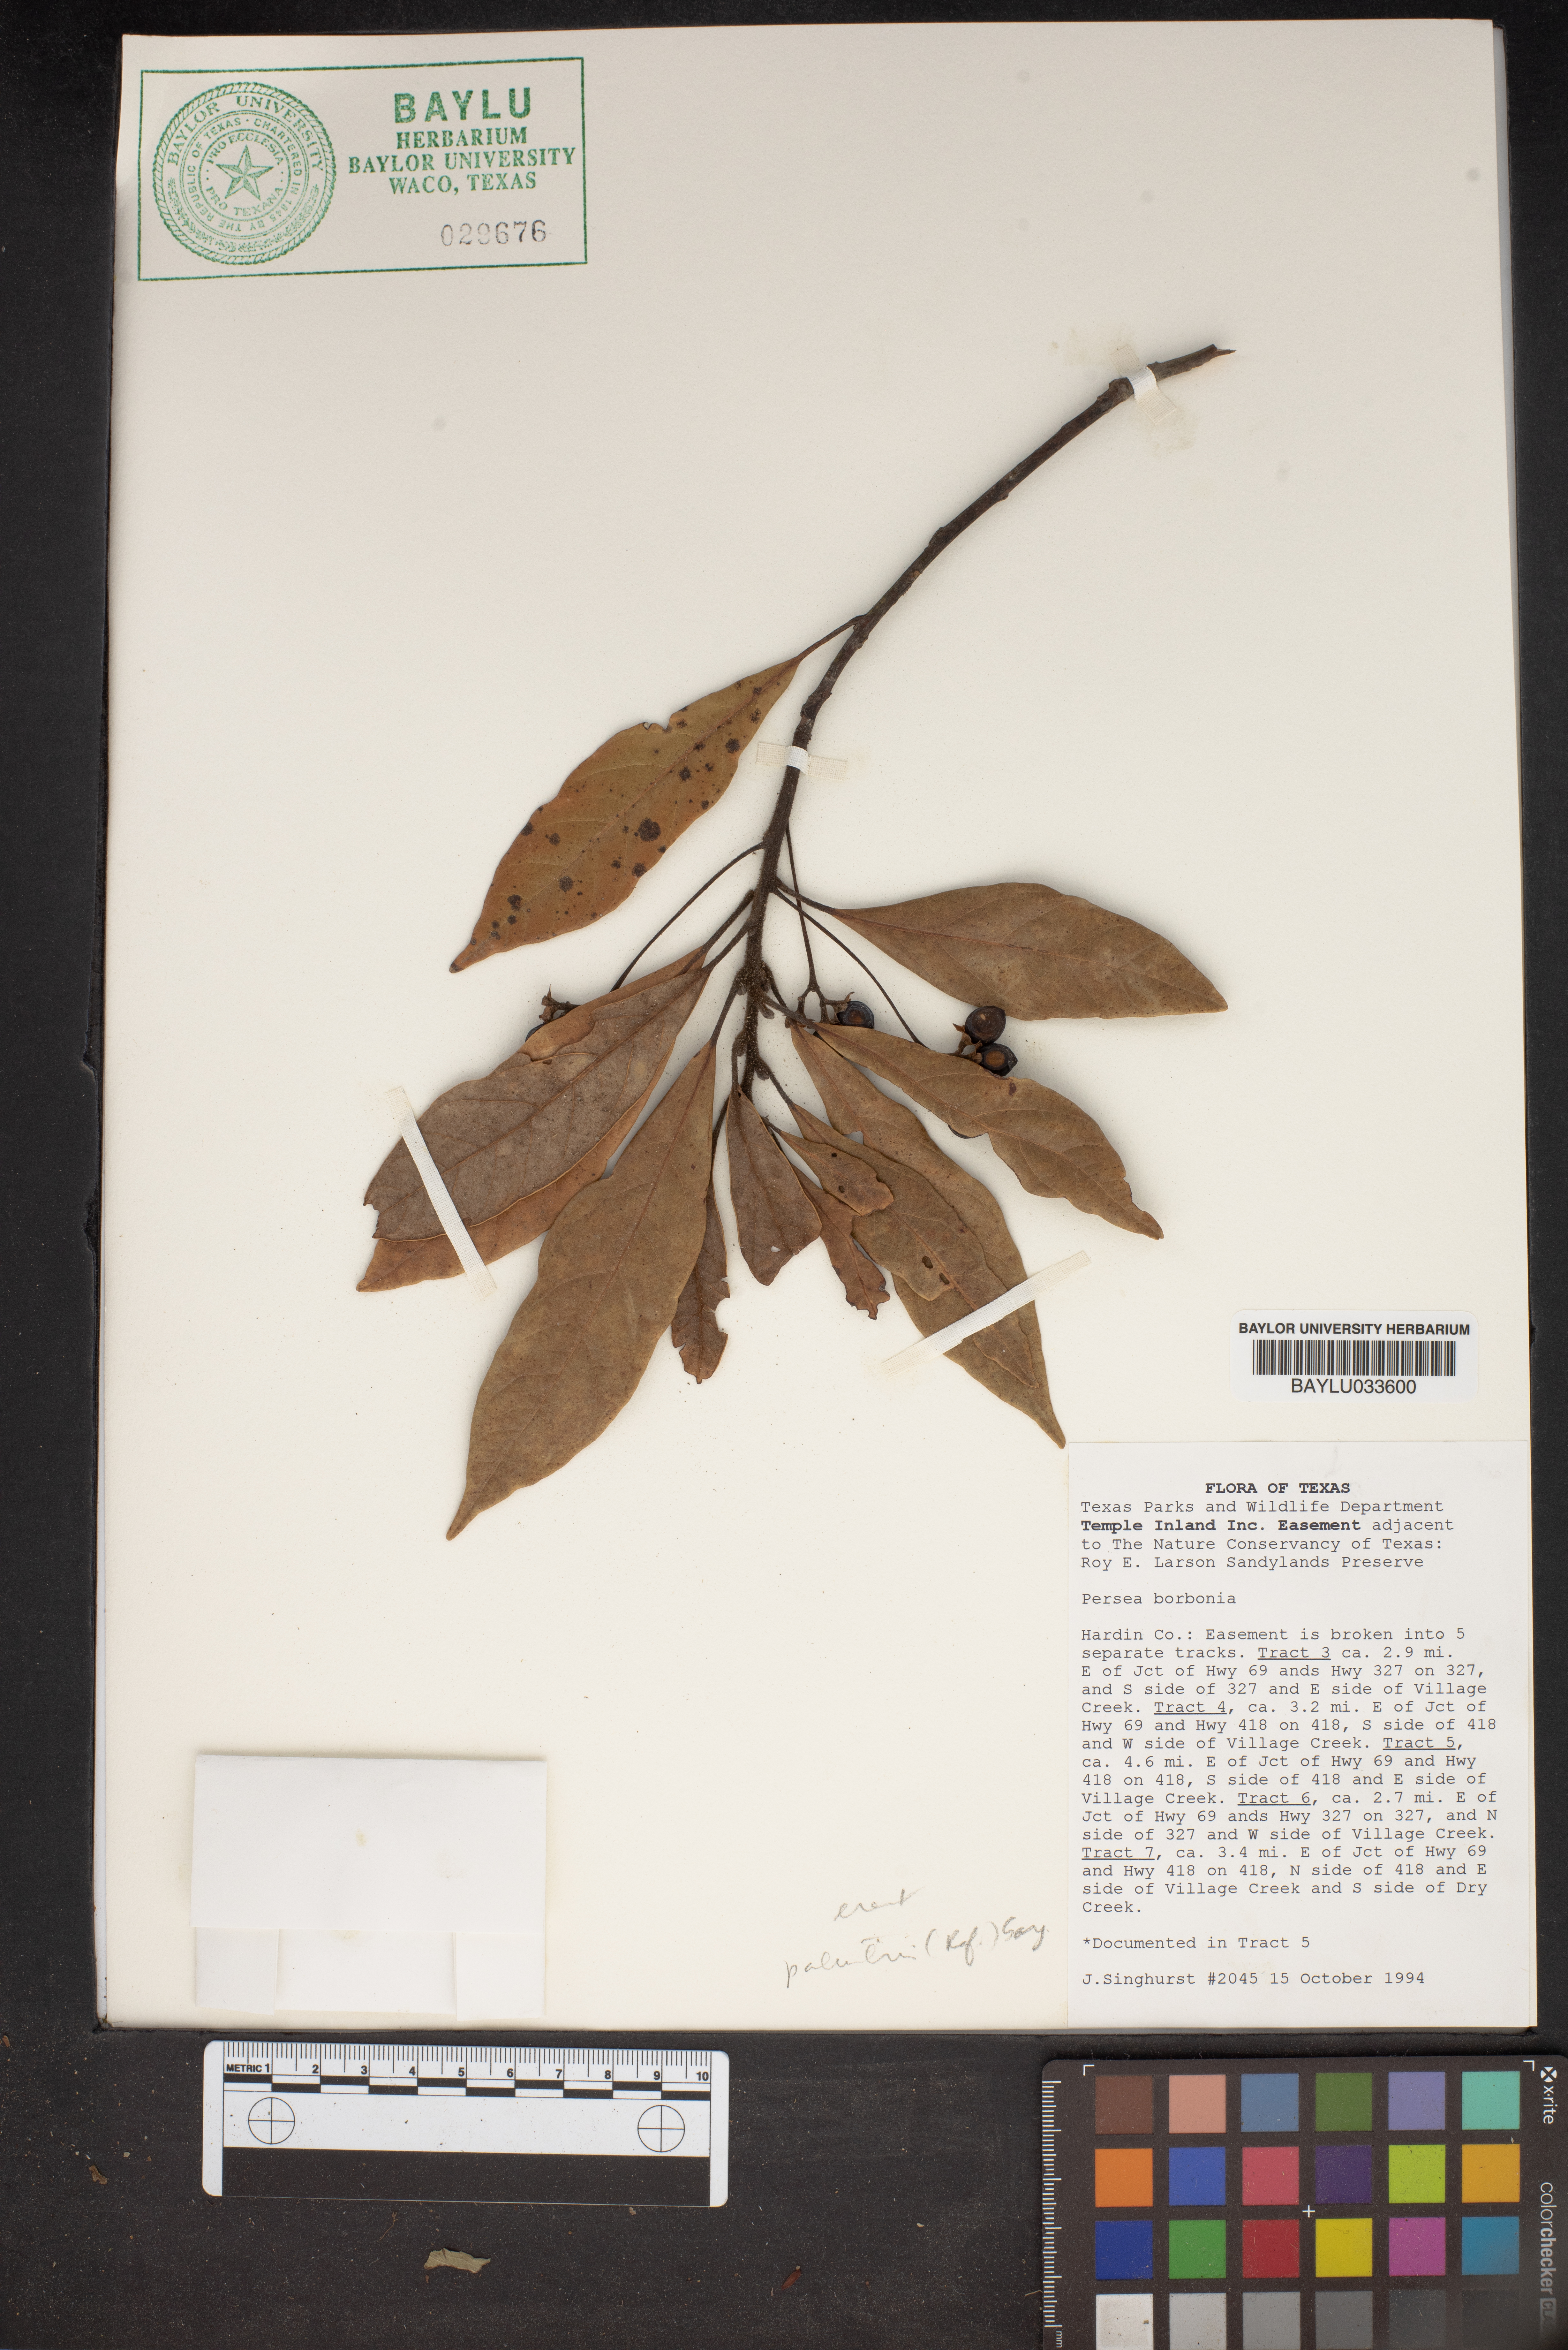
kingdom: Plantae
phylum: Tracheophyta
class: Magnoliopsida
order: Laurales
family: Lauraceae
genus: Persea
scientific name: Persea borbonia
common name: Redbay
